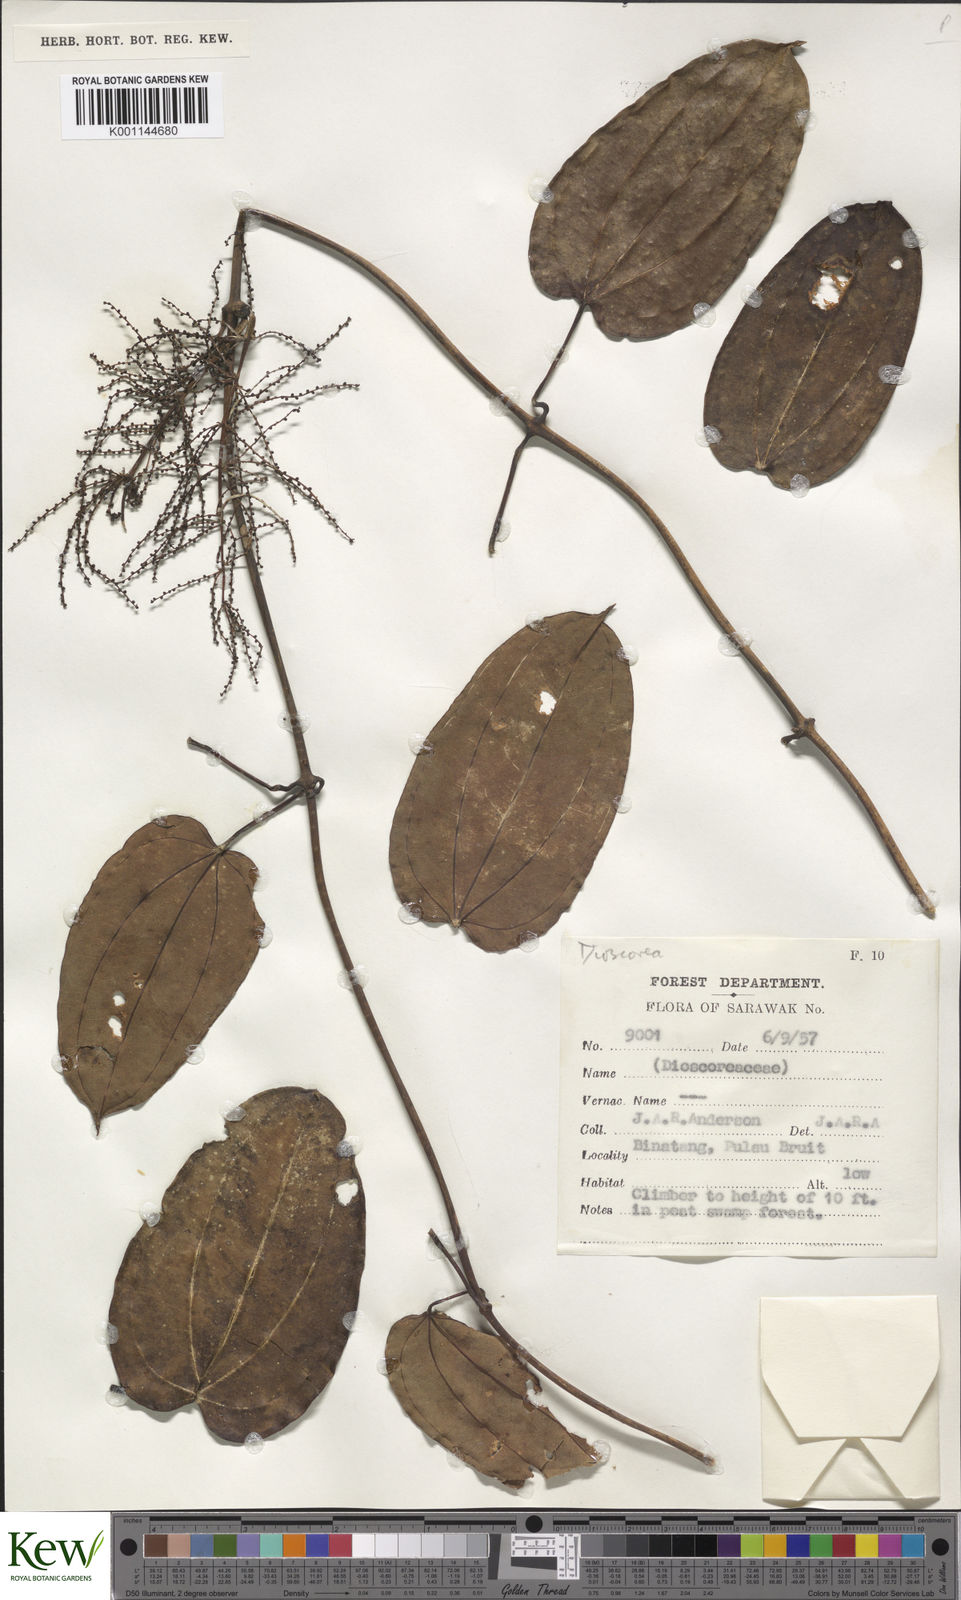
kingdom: Plantae
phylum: Tracheophyta
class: Liliopsida
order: Dioscoreales
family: Dioscoreaceae
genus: Dioscorea
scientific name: Dioscorea
